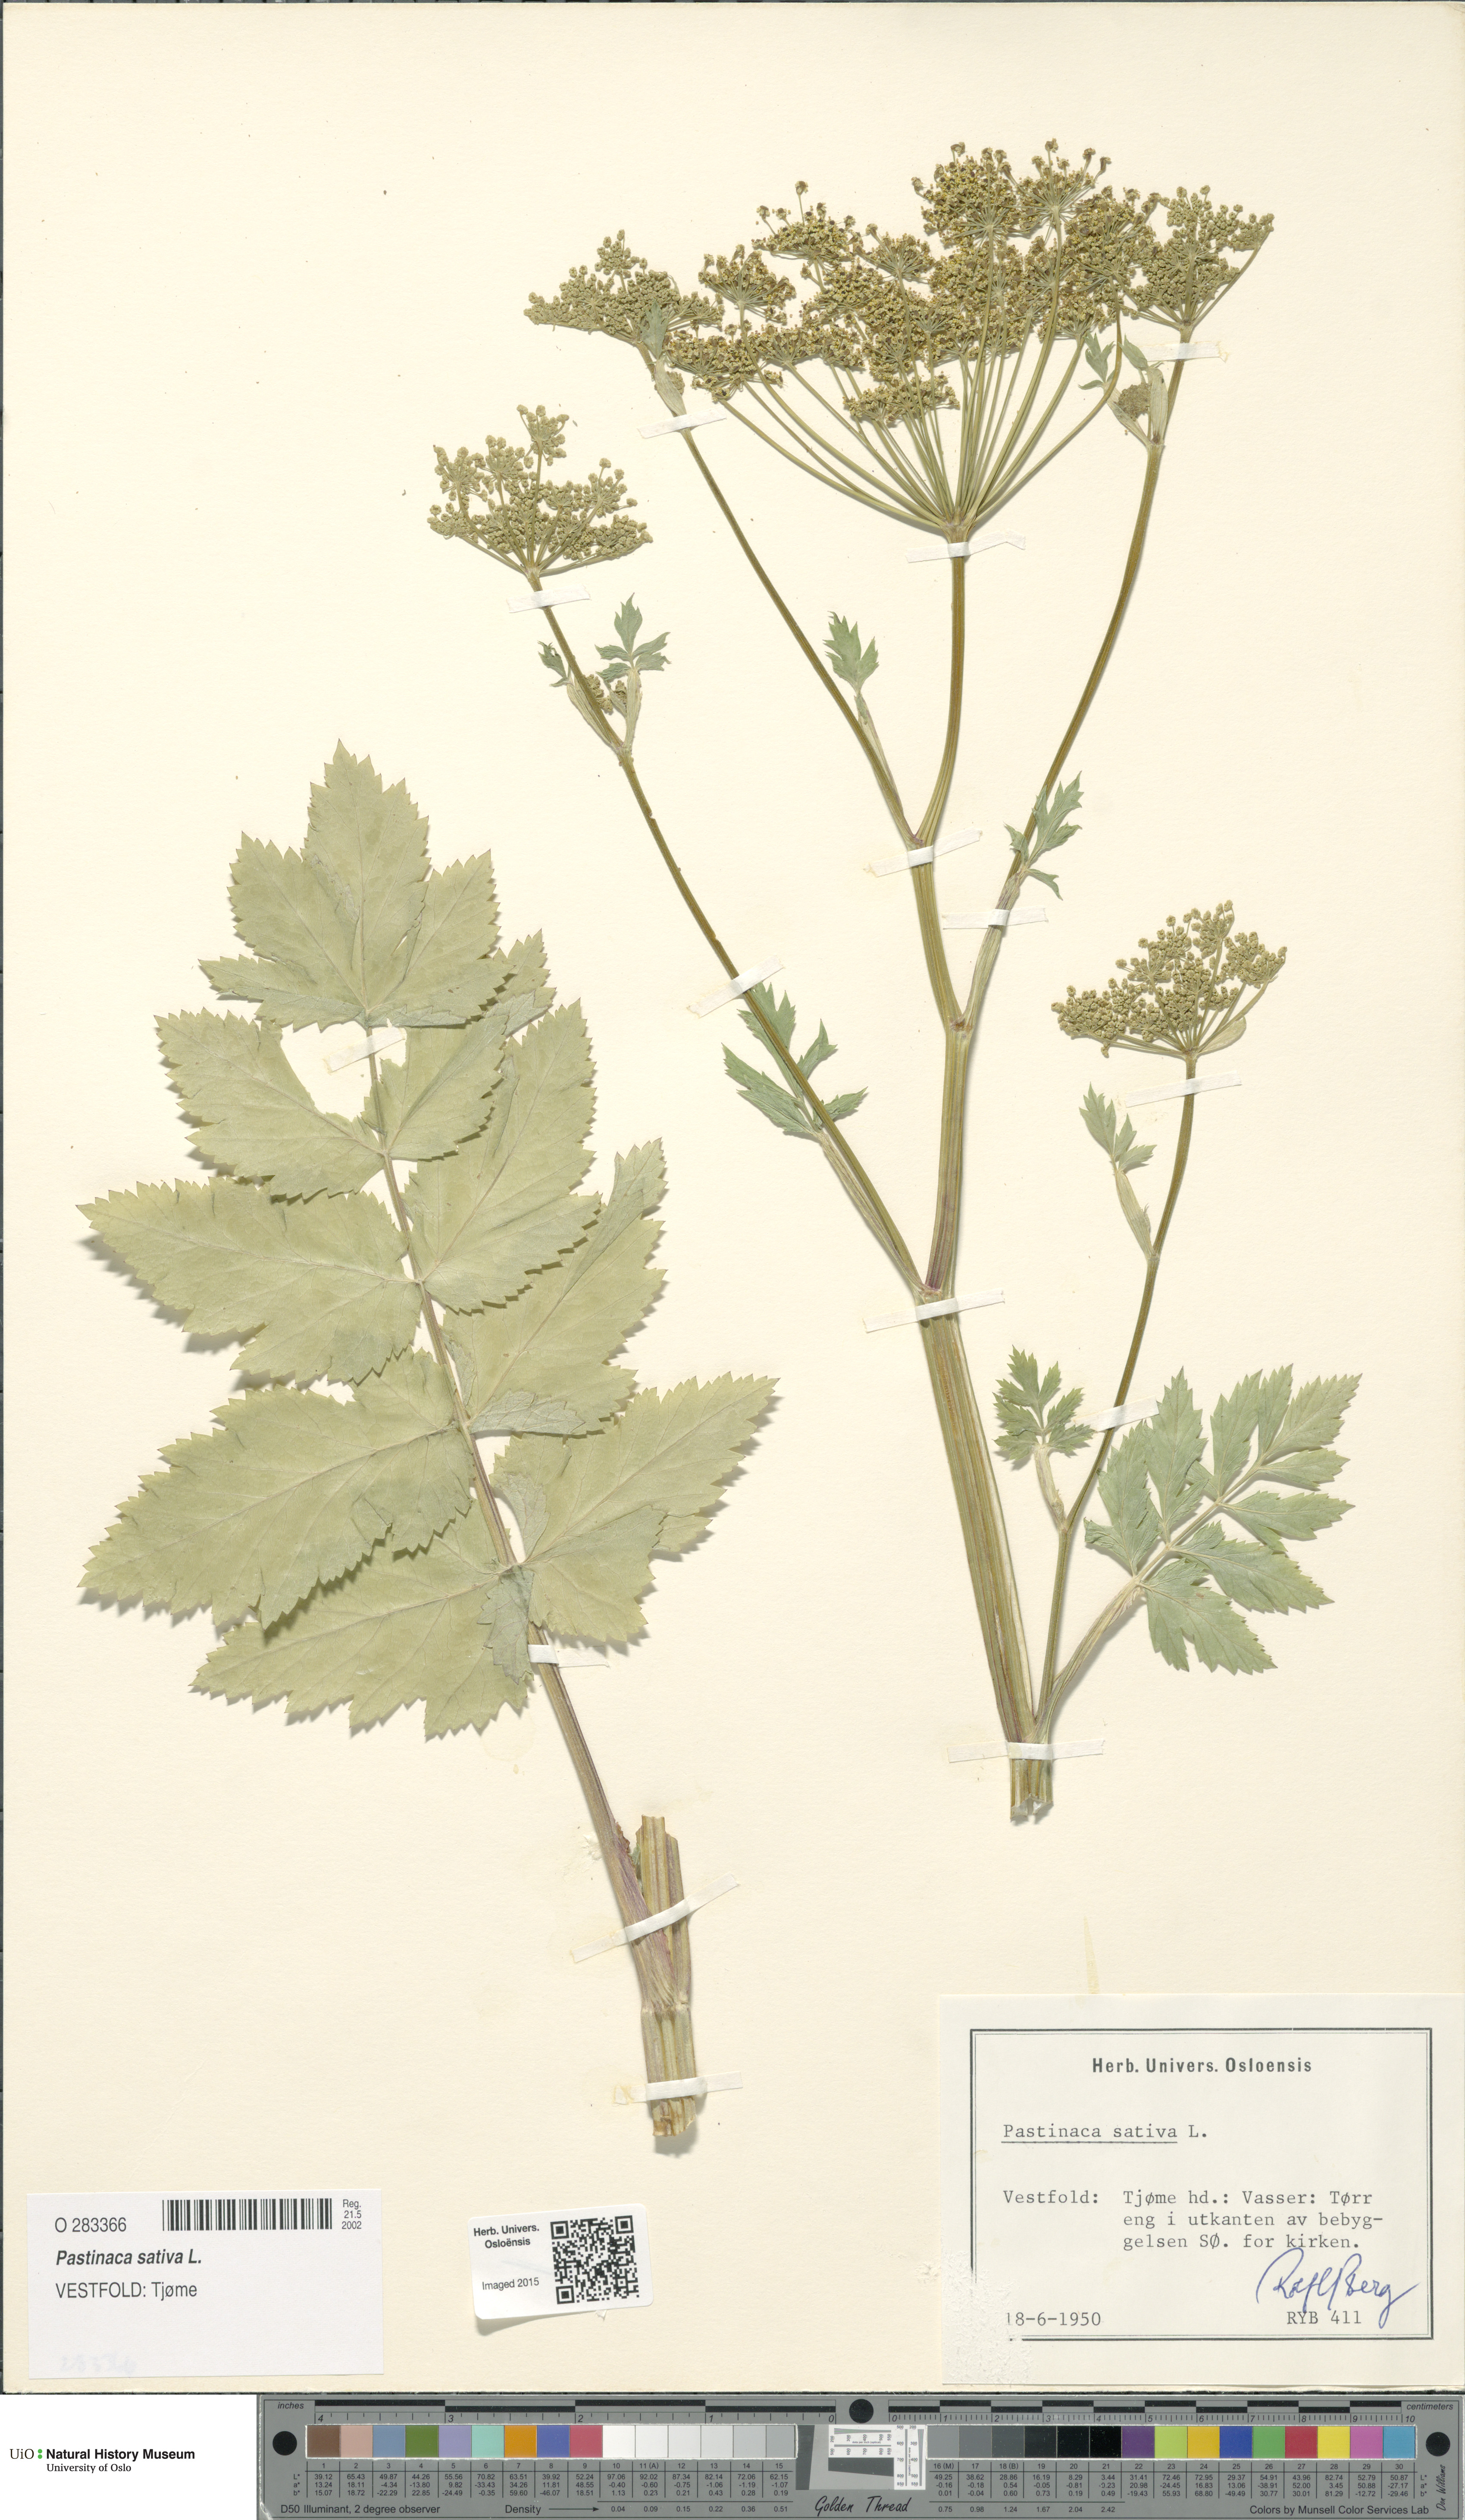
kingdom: Plantae
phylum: Tracheophyta
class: Magnoliopsida
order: Apiales
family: Apiaceae
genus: Pastinaca
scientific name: Pastinaca sativa
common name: Wild parsnip
